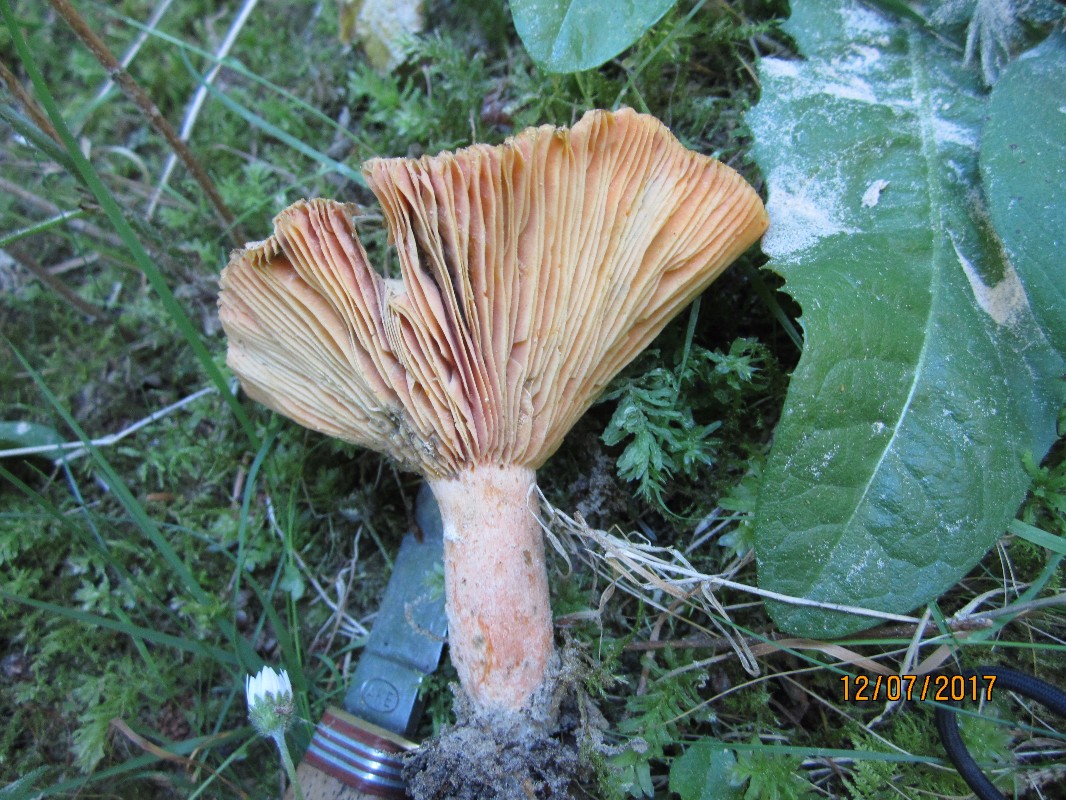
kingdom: Fungi
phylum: Basidiomycota
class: Agaricomycetes
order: Russulales
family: Russulaceae
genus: Lactarius
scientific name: Lactarius deterrimus
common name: gran-mælkehat
